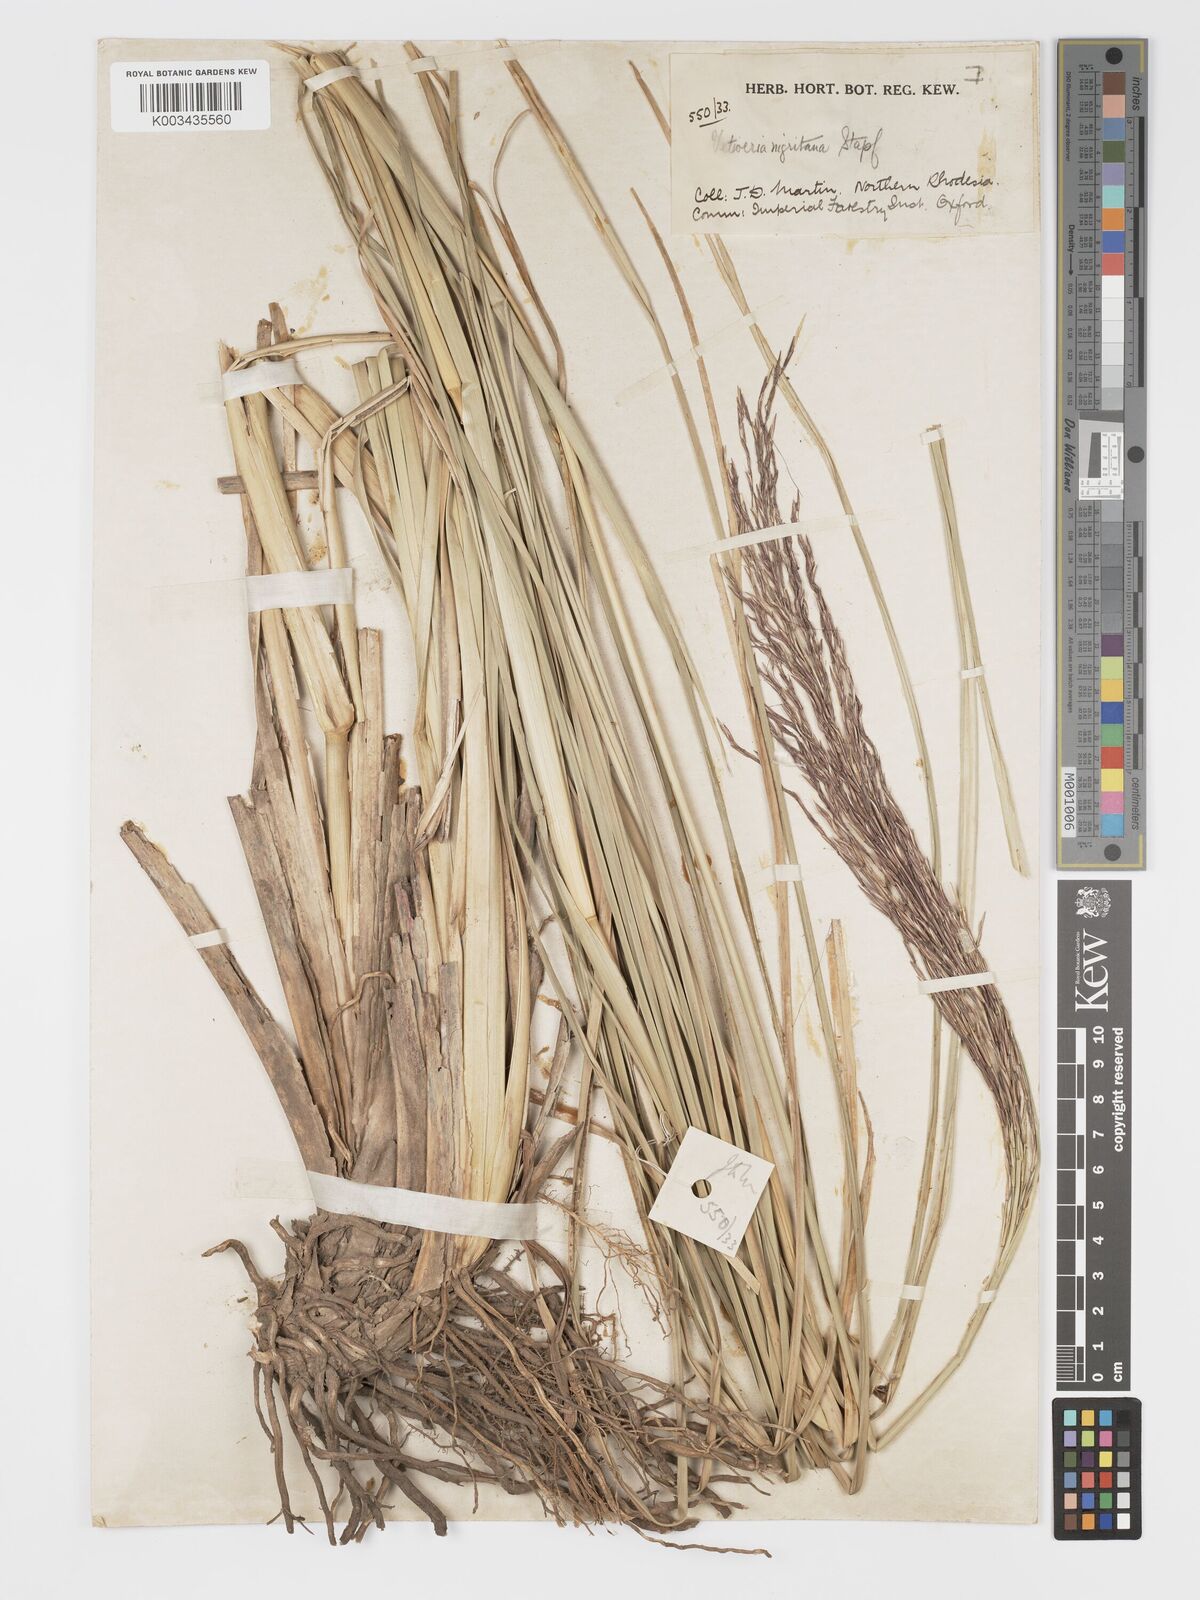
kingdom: Plantae
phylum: Tracheophyta
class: Liliopsida
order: Poales
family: Poaceae
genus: Chrysopogon
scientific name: Chrysopogon nigritanus
